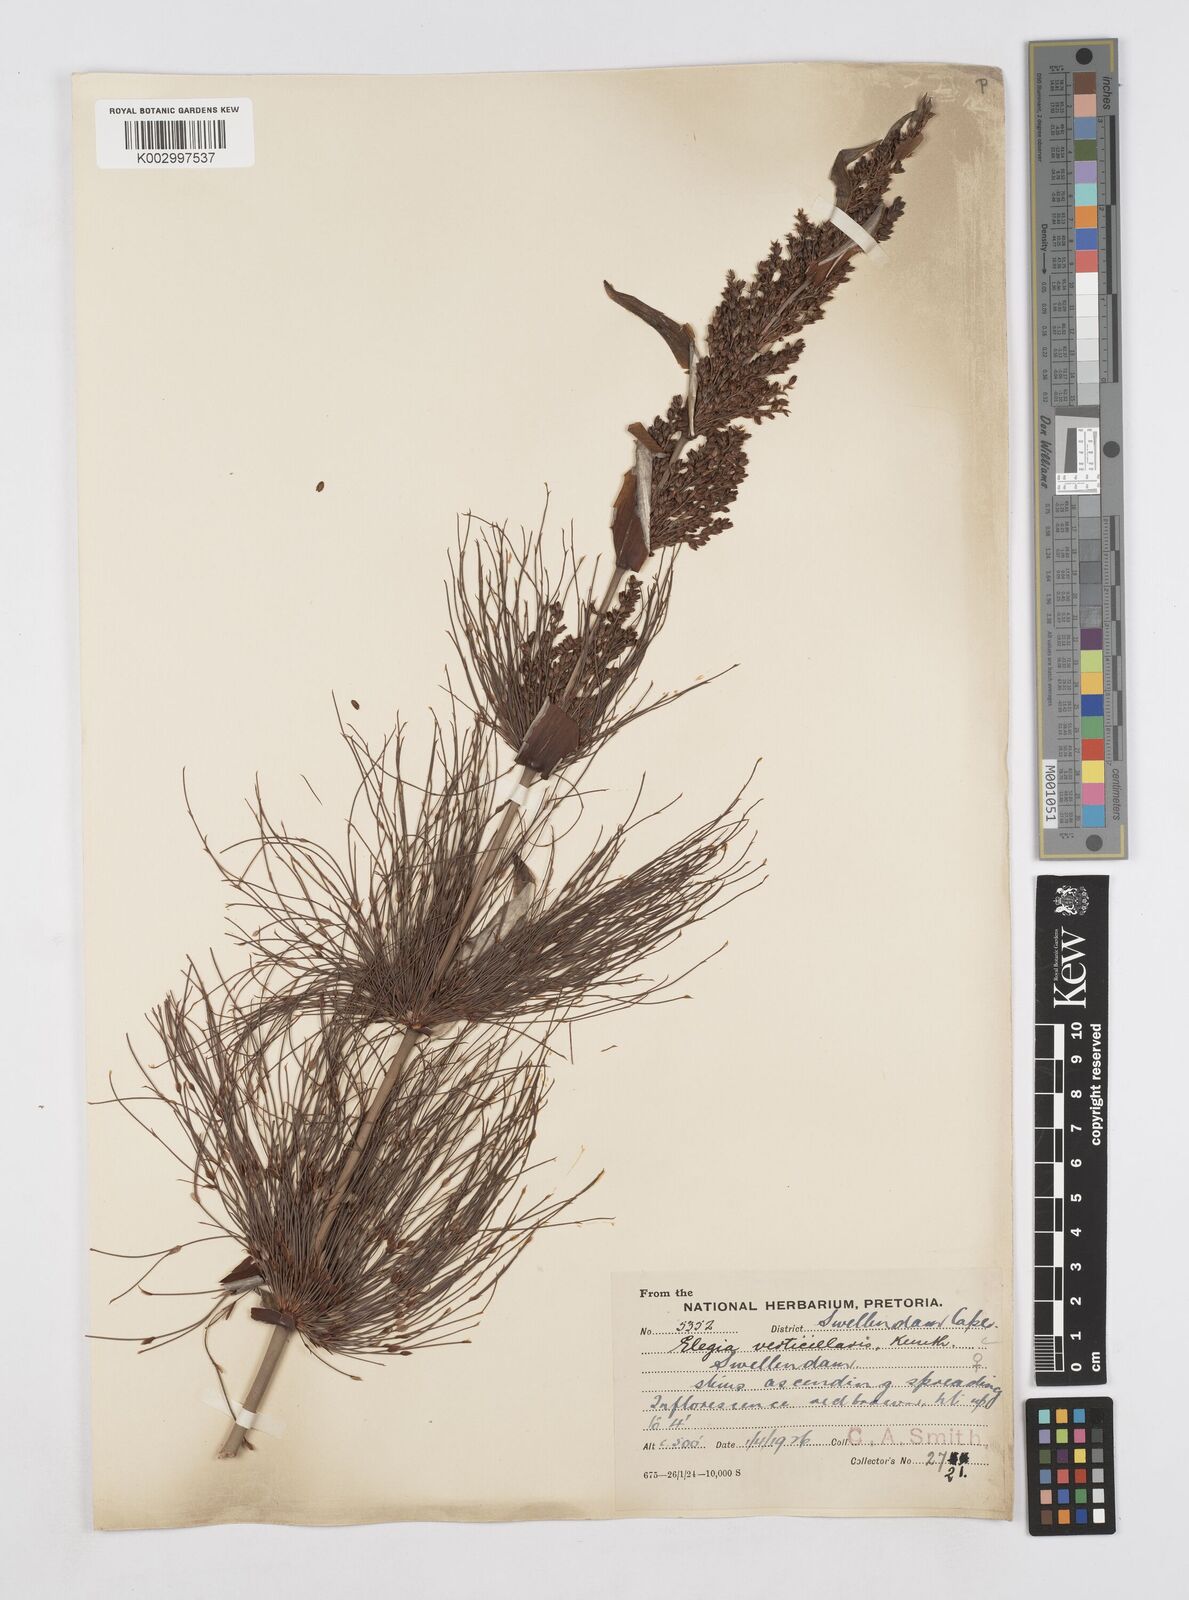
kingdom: Plantae
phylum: Tracheophyta
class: Liliopsida
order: Poales
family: Restionaceae
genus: Elegia
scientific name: Elegia capensis
